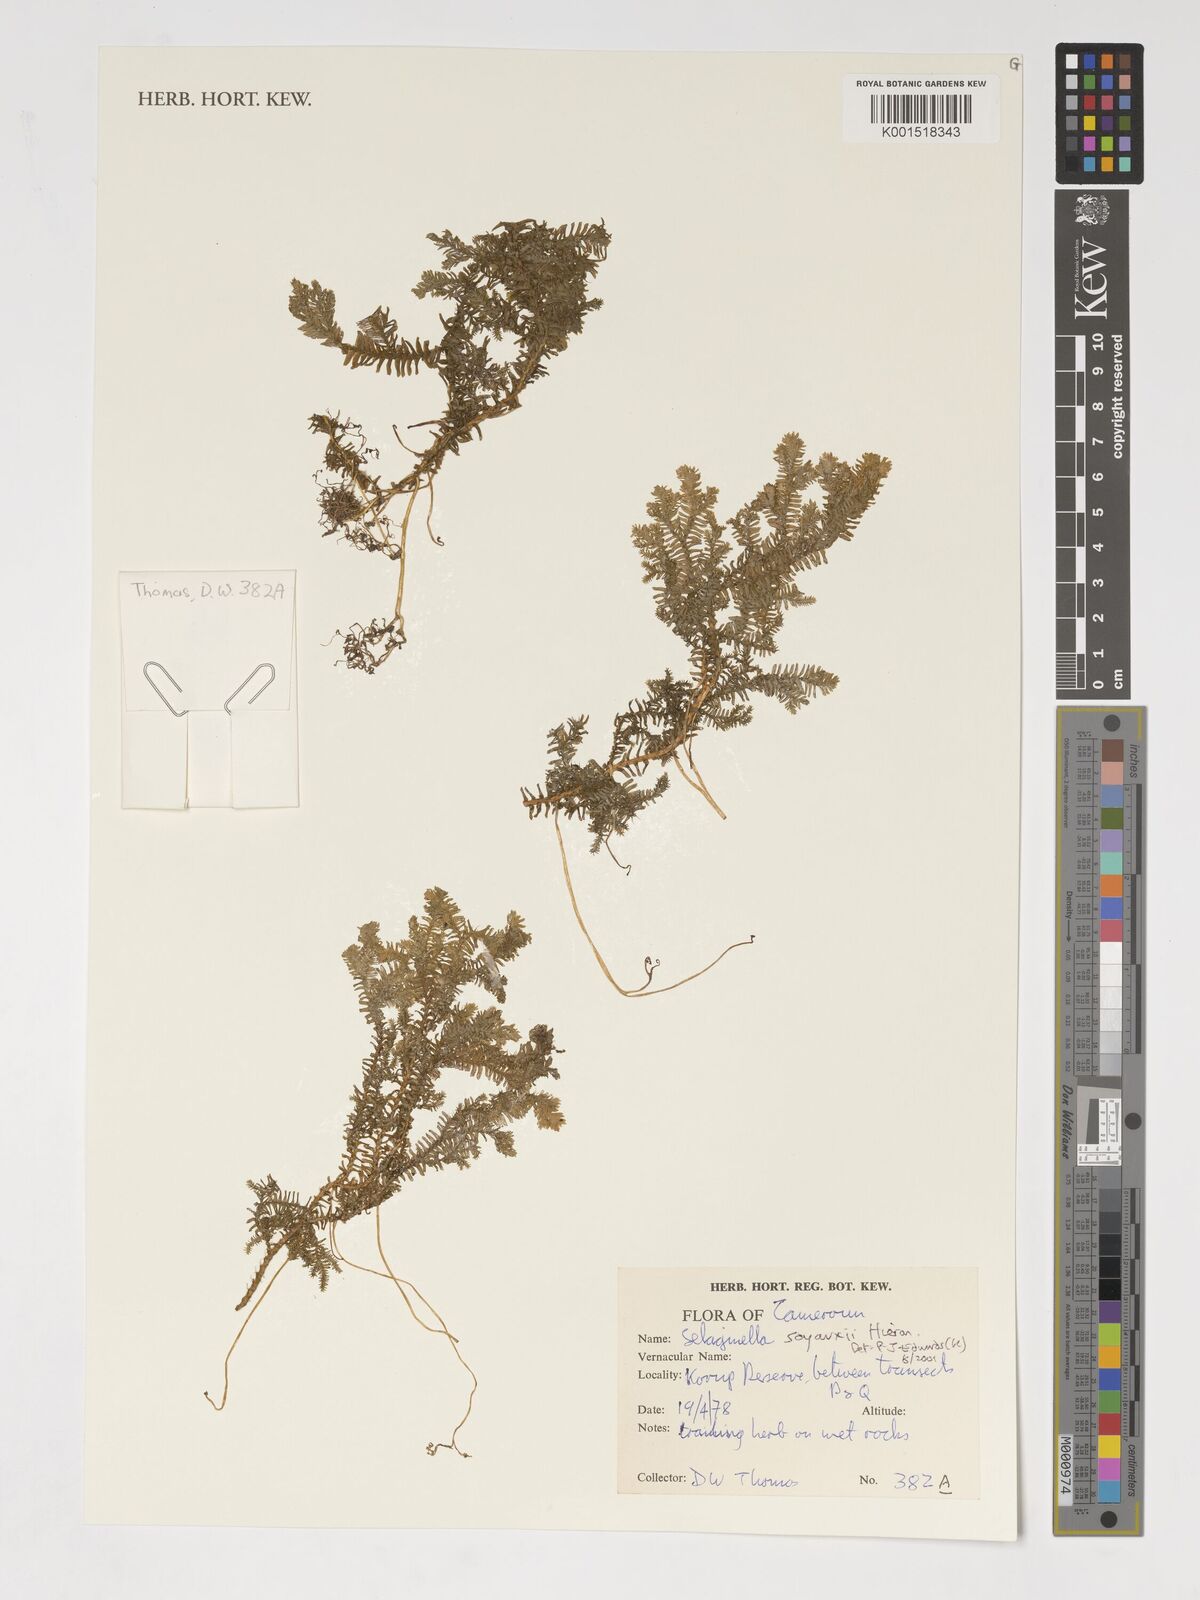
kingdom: Plantae
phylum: Tracheophyta
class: Lycopodiopsida
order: Selaginellales
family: Selaginellaceae
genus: Selaginella
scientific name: Selaginella soyauxii
